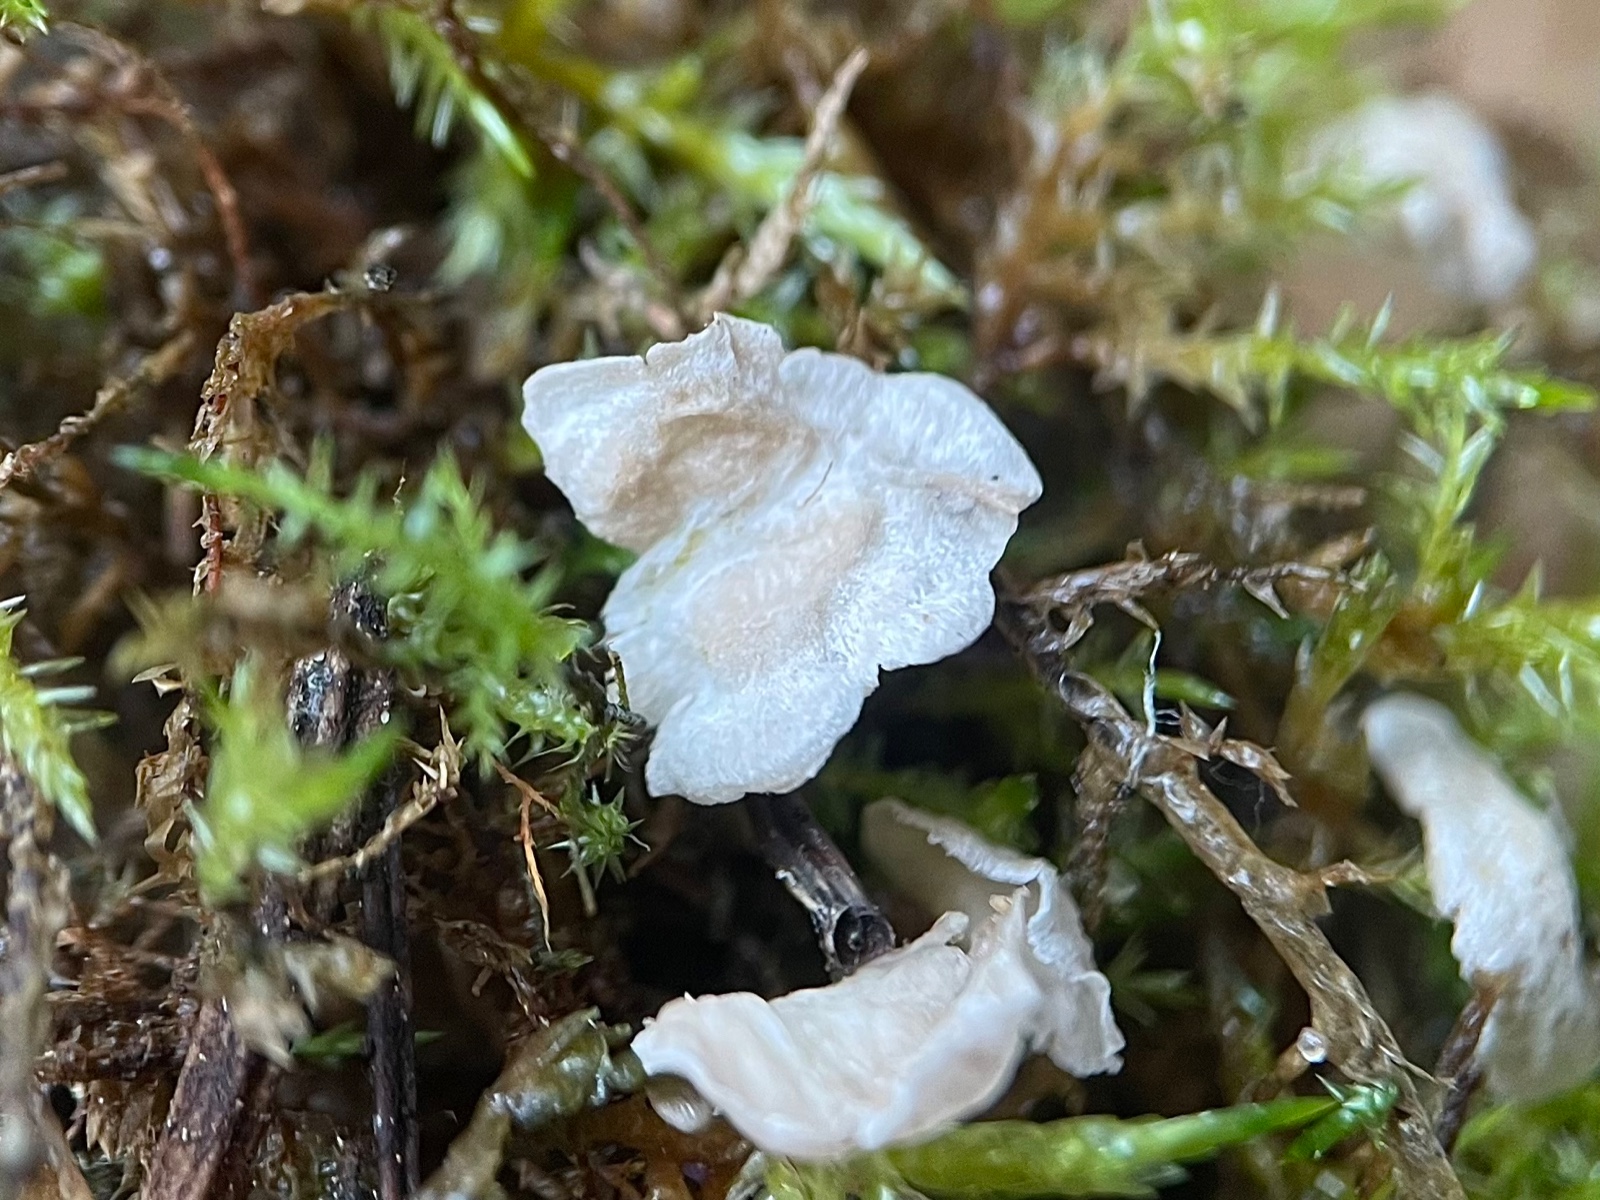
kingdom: Fungi
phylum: Basidiomycota
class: Agaricomycetes
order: Agaricales
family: Hygrophoraceae
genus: Arrhenia
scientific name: Arrhenia retiruga
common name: lille fontænehat
